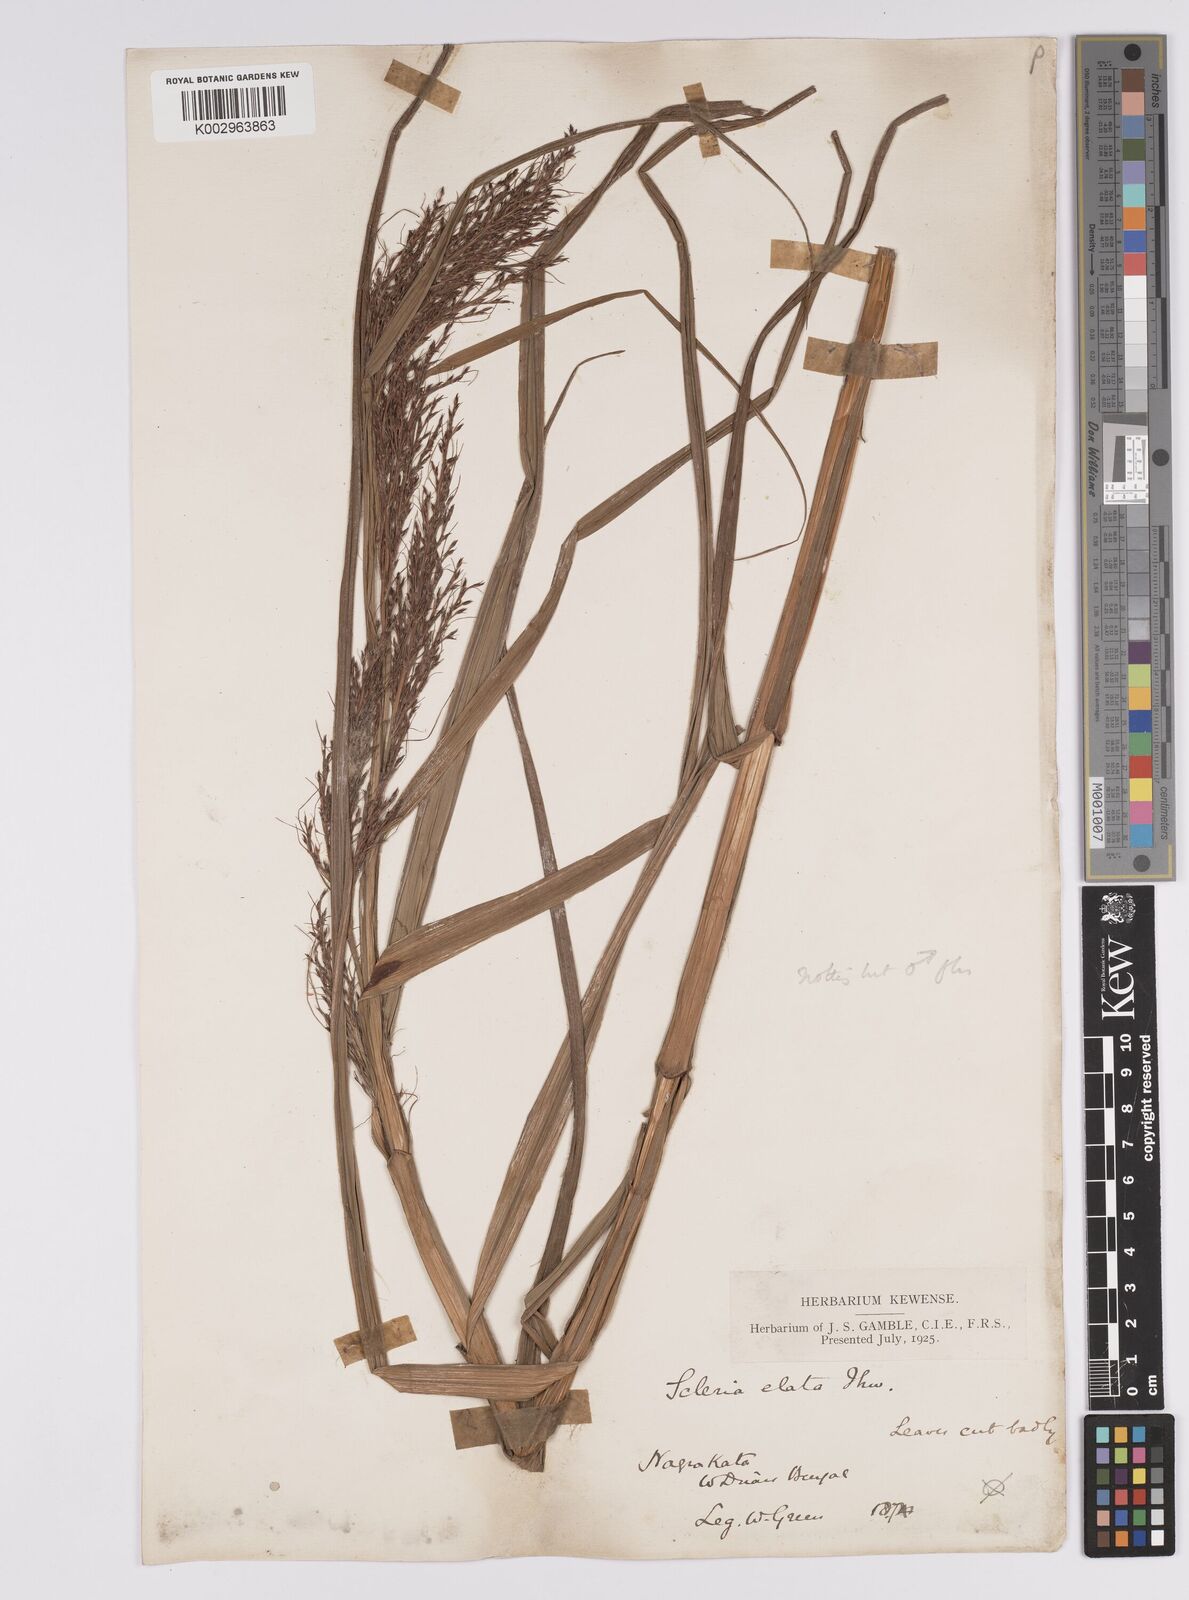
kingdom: Plantae
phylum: Tracheophyta
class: Liliopsida
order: Poales
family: Cyperaceae
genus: Scleria
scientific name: Scleria terrestris
